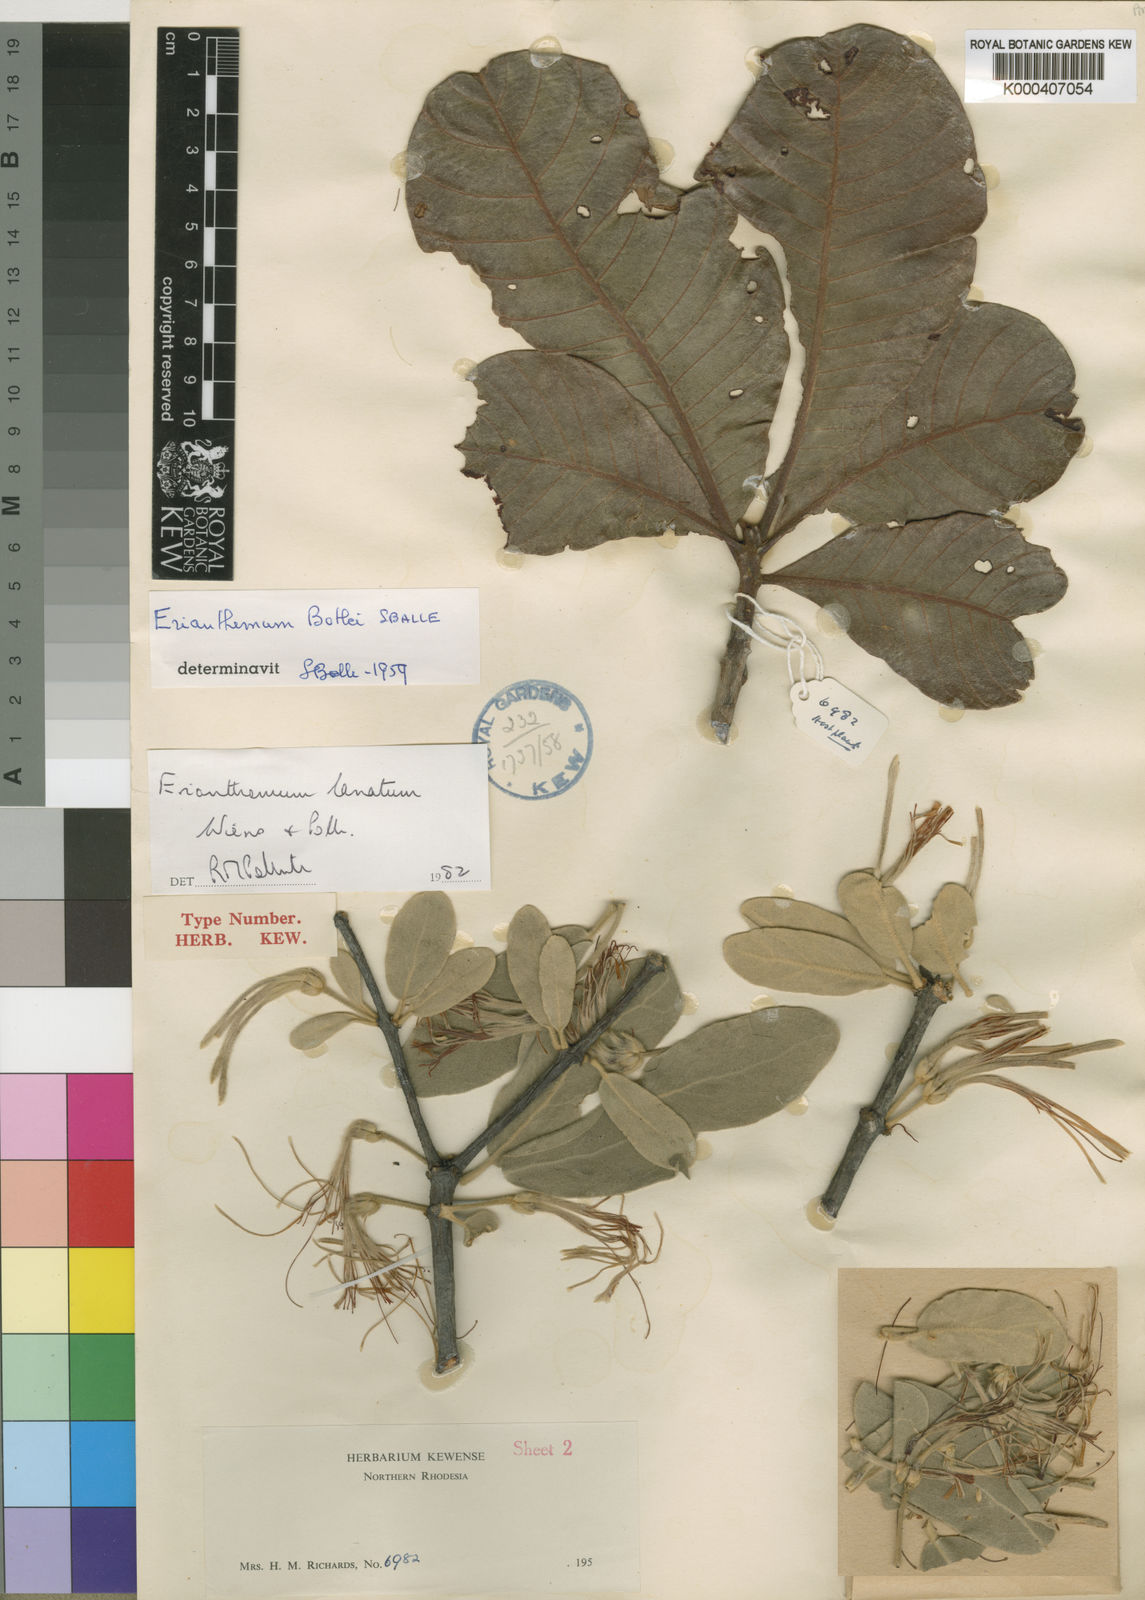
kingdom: Plantae
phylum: Tracheophyta
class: Magnoliopsida
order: Santalales
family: Loranthaceae
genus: Erianthemum
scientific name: Erianthemum lanatum
